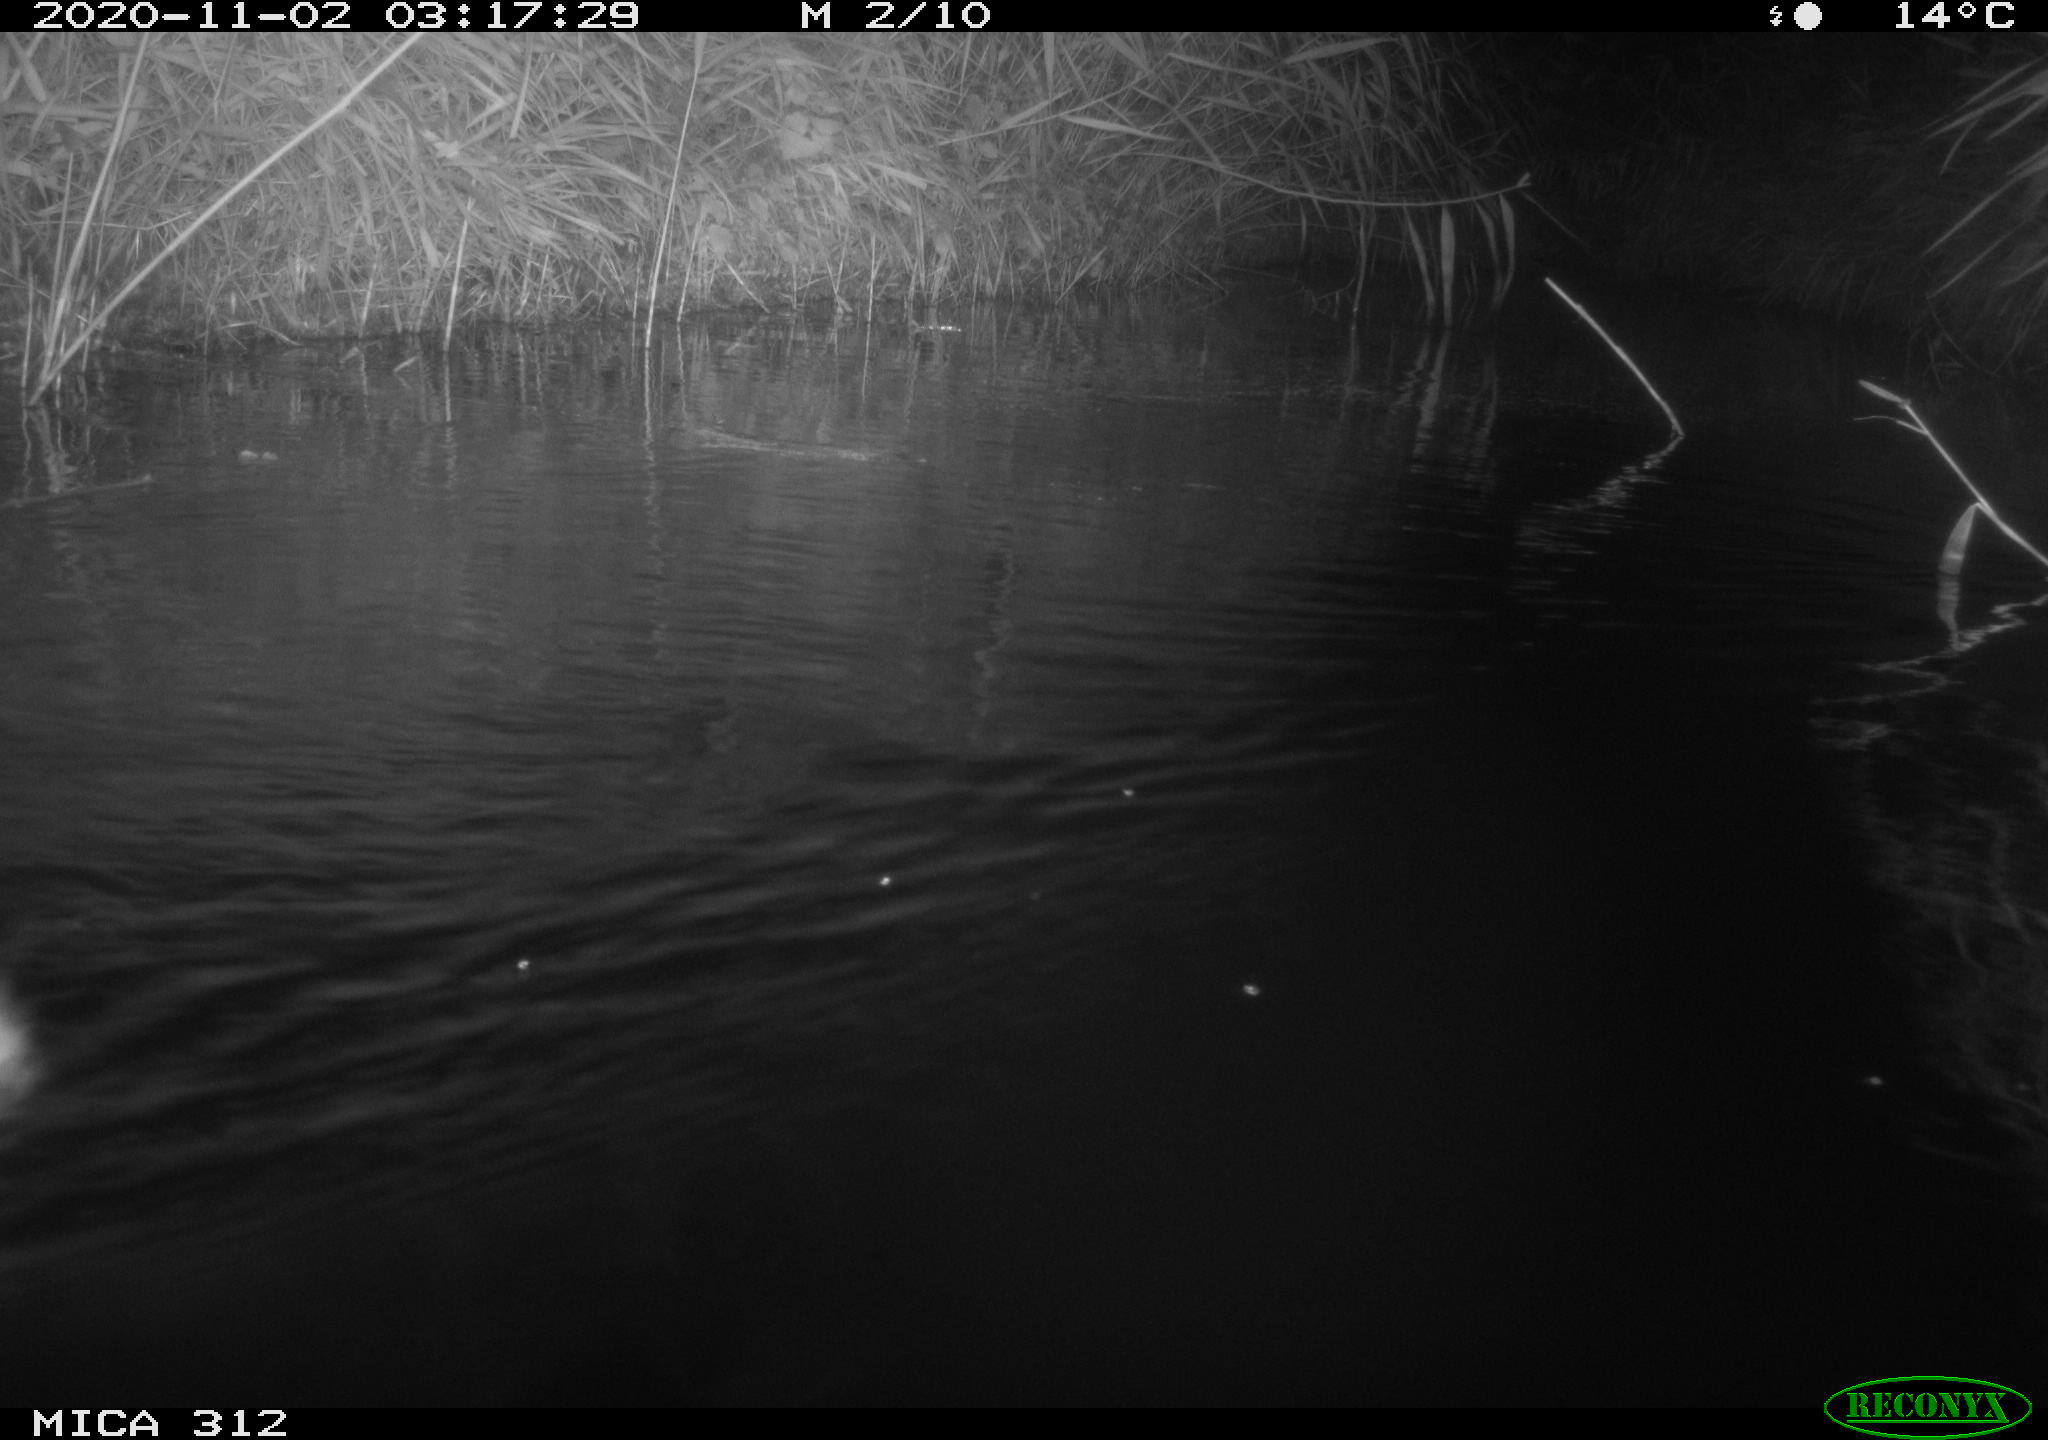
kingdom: Animalia
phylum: Chordata
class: Mammalia
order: Rodentia
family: Cricetidae
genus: Ondatra
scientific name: Ondatra zibethicus
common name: Muskrat
